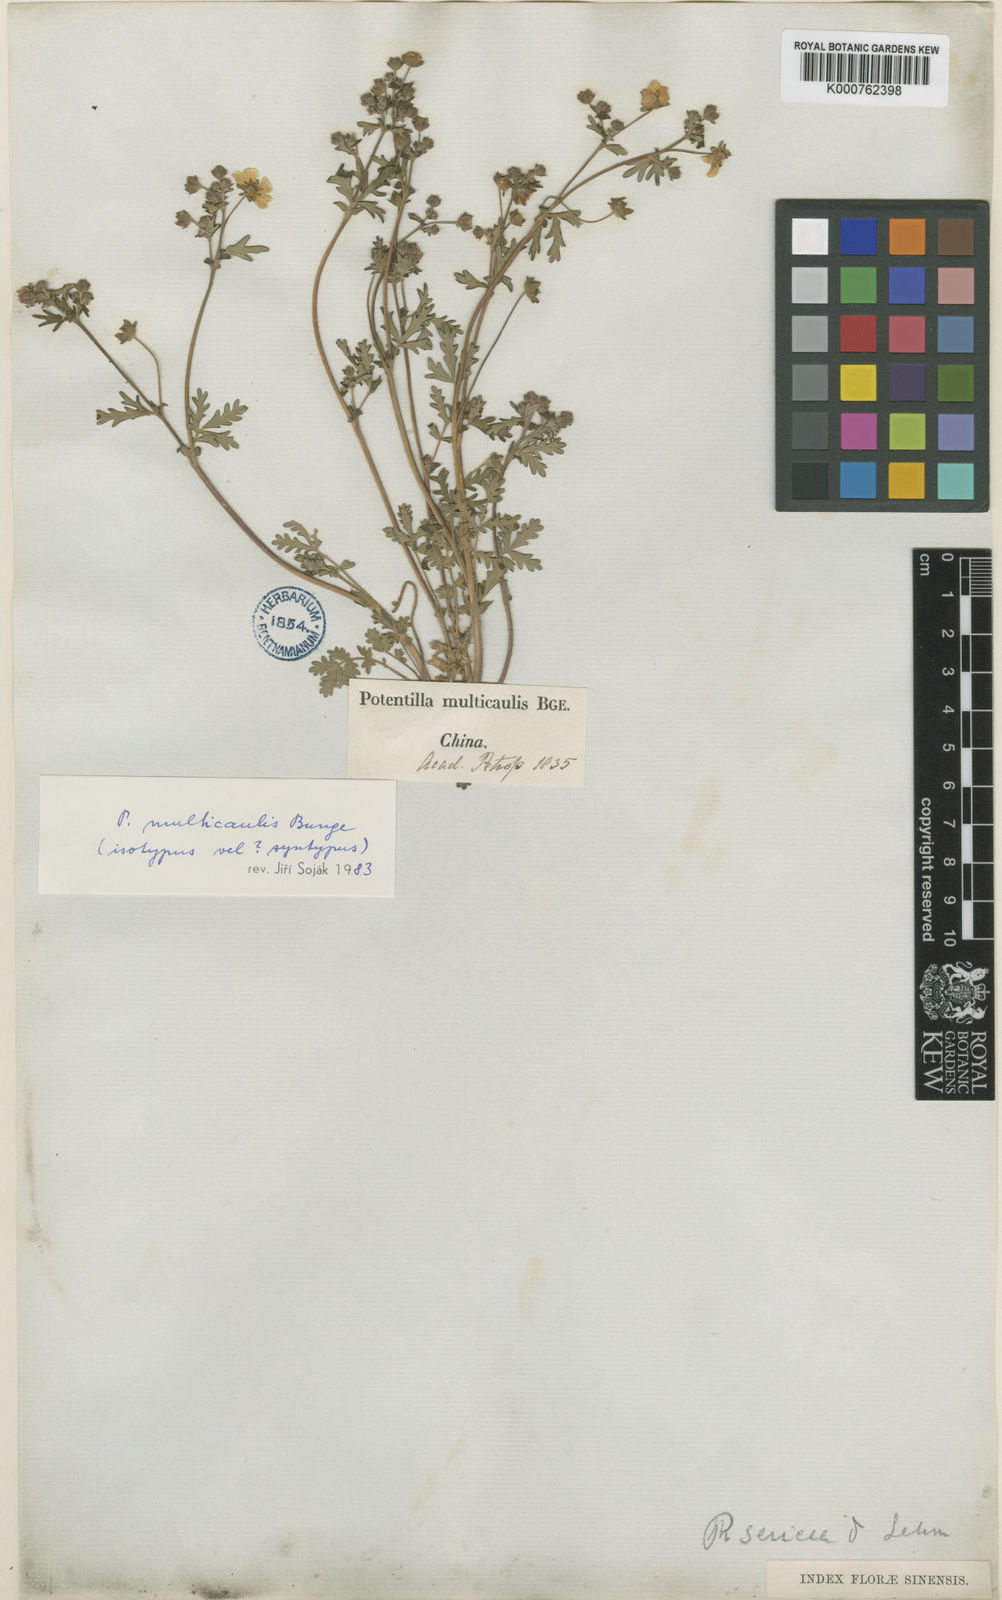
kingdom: Plantae
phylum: Tracheophyta
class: Magnoliopsida
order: Rosales
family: Rosaceae
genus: Potentilla
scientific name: Potentilla sericea
